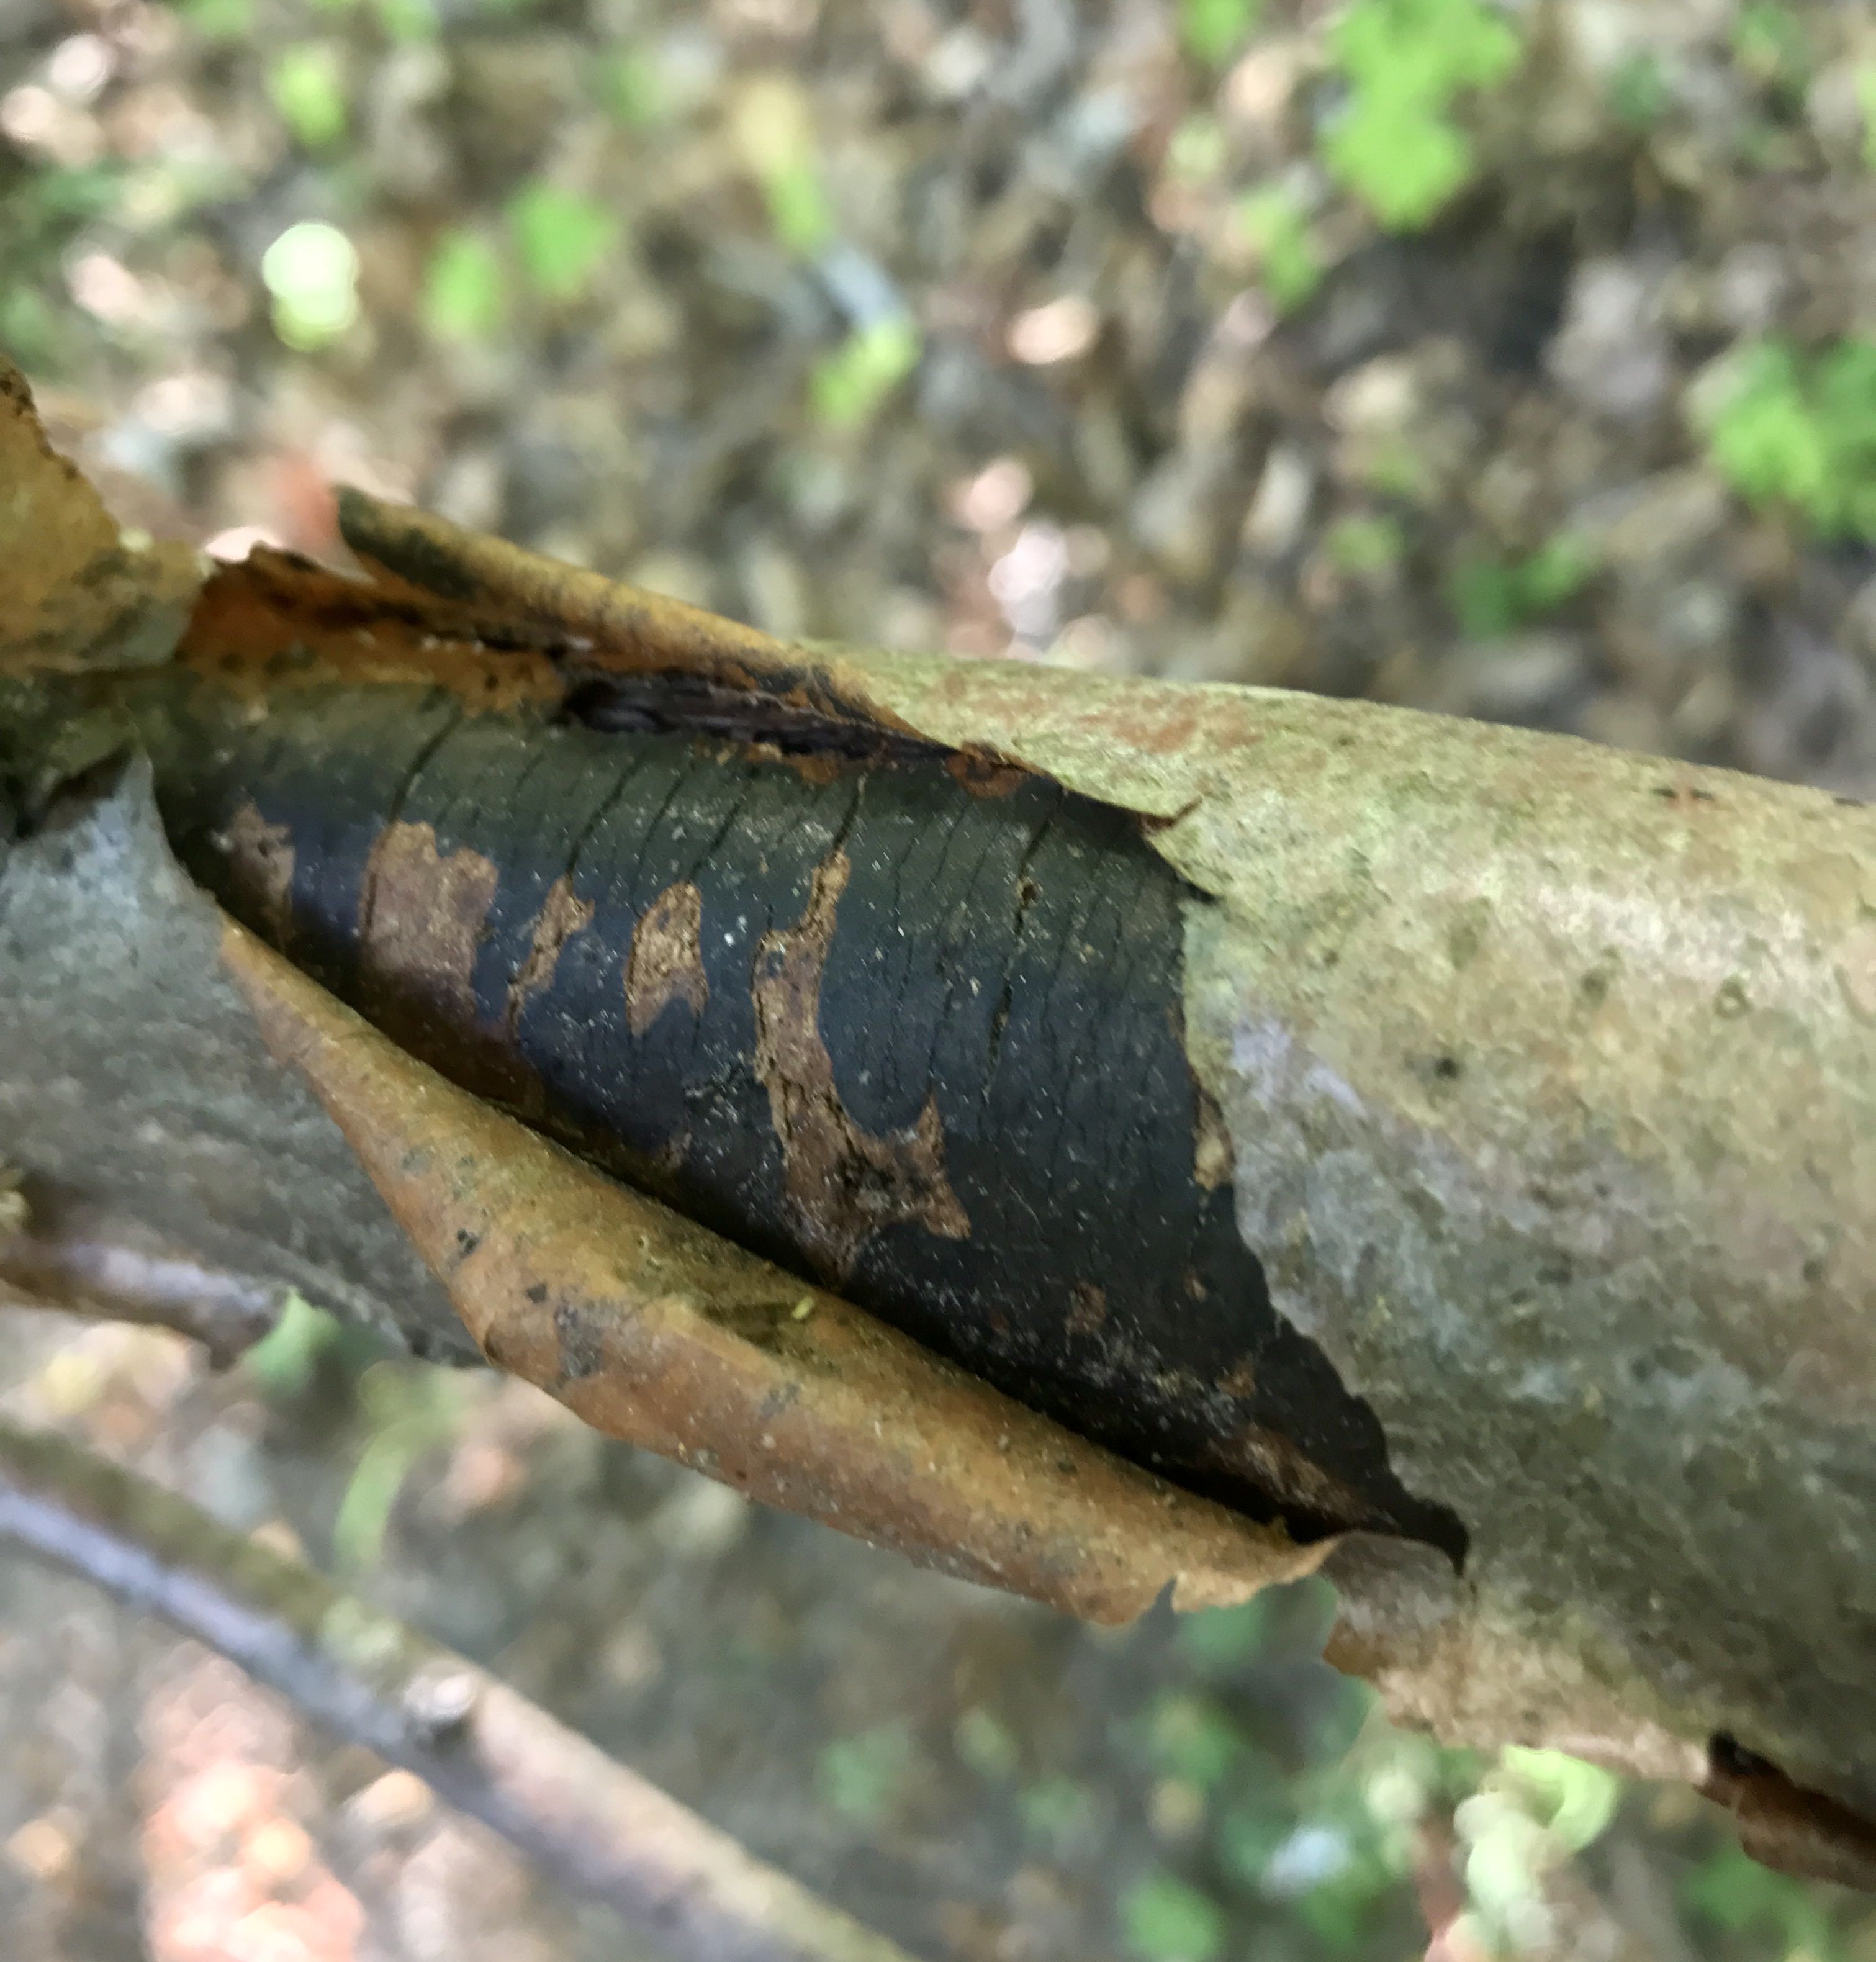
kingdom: Fungi
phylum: Ascomycota
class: Sordariomycetes
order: Xylariales
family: Diatrypaceae
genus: Diatrype
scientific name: Diatrype decorticata
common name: barksprænger-kulskorpe
